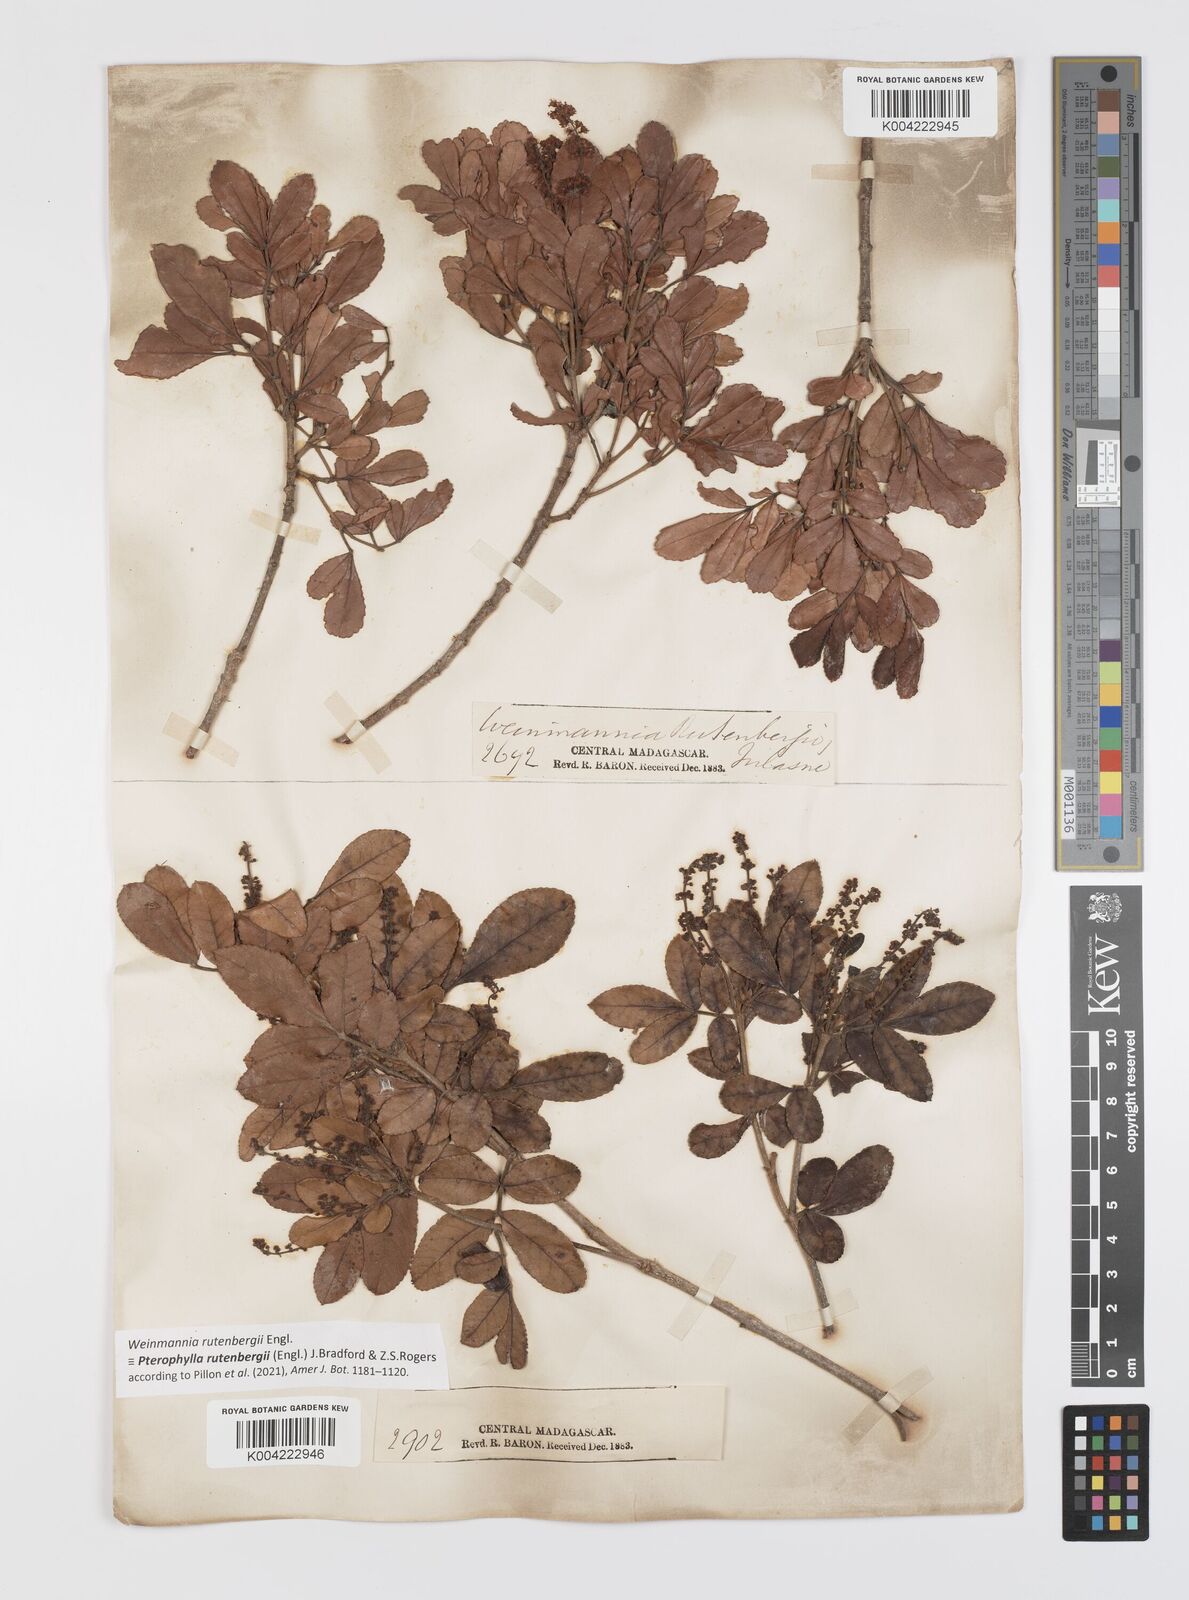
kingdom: Plantae
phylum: Tracheophyta
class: Magnoliopsida
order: Oxalidales
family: Cunoniaceae
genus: Pterophylla
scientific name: Pterophylla rutenbergii
